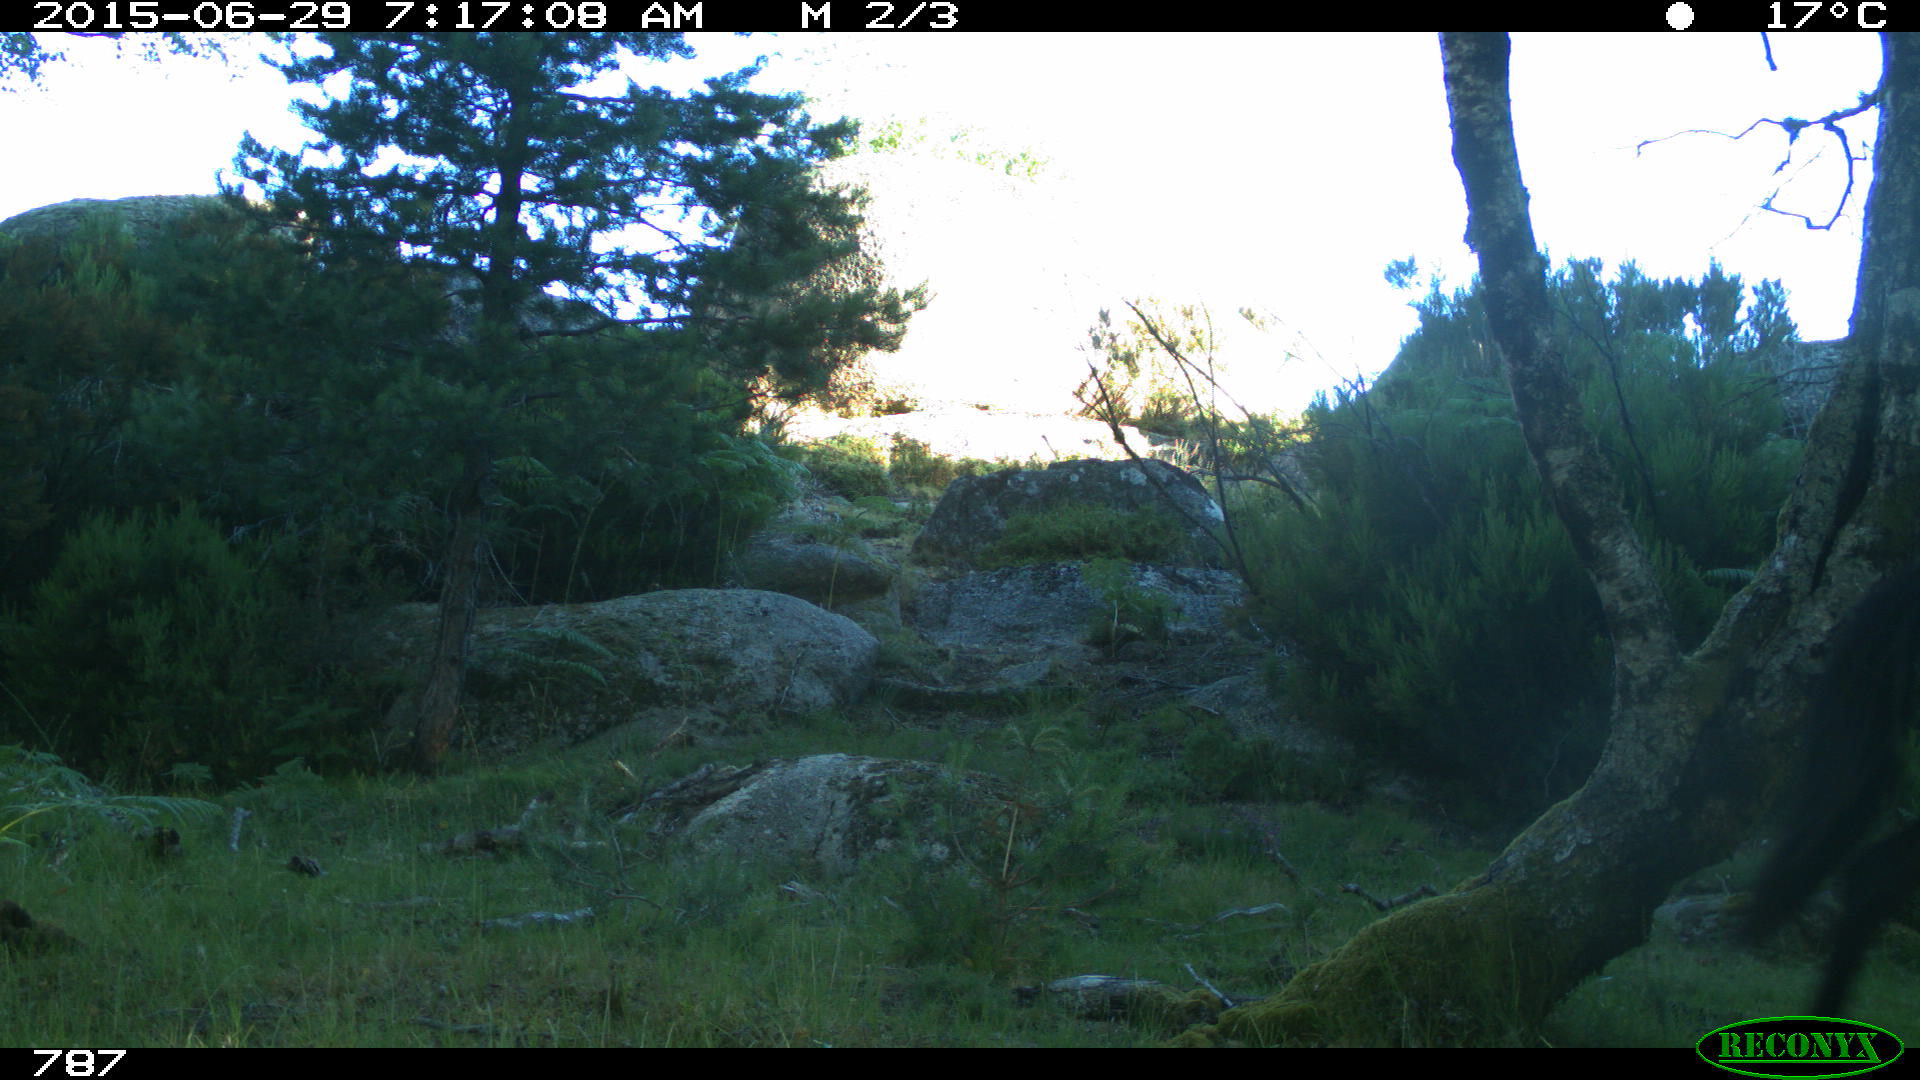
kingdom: Animalia
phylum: Chordata
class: Mammalia
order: Perissodactyla
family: Equidae
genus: Equus
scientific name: Equus caballus
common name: Horse
